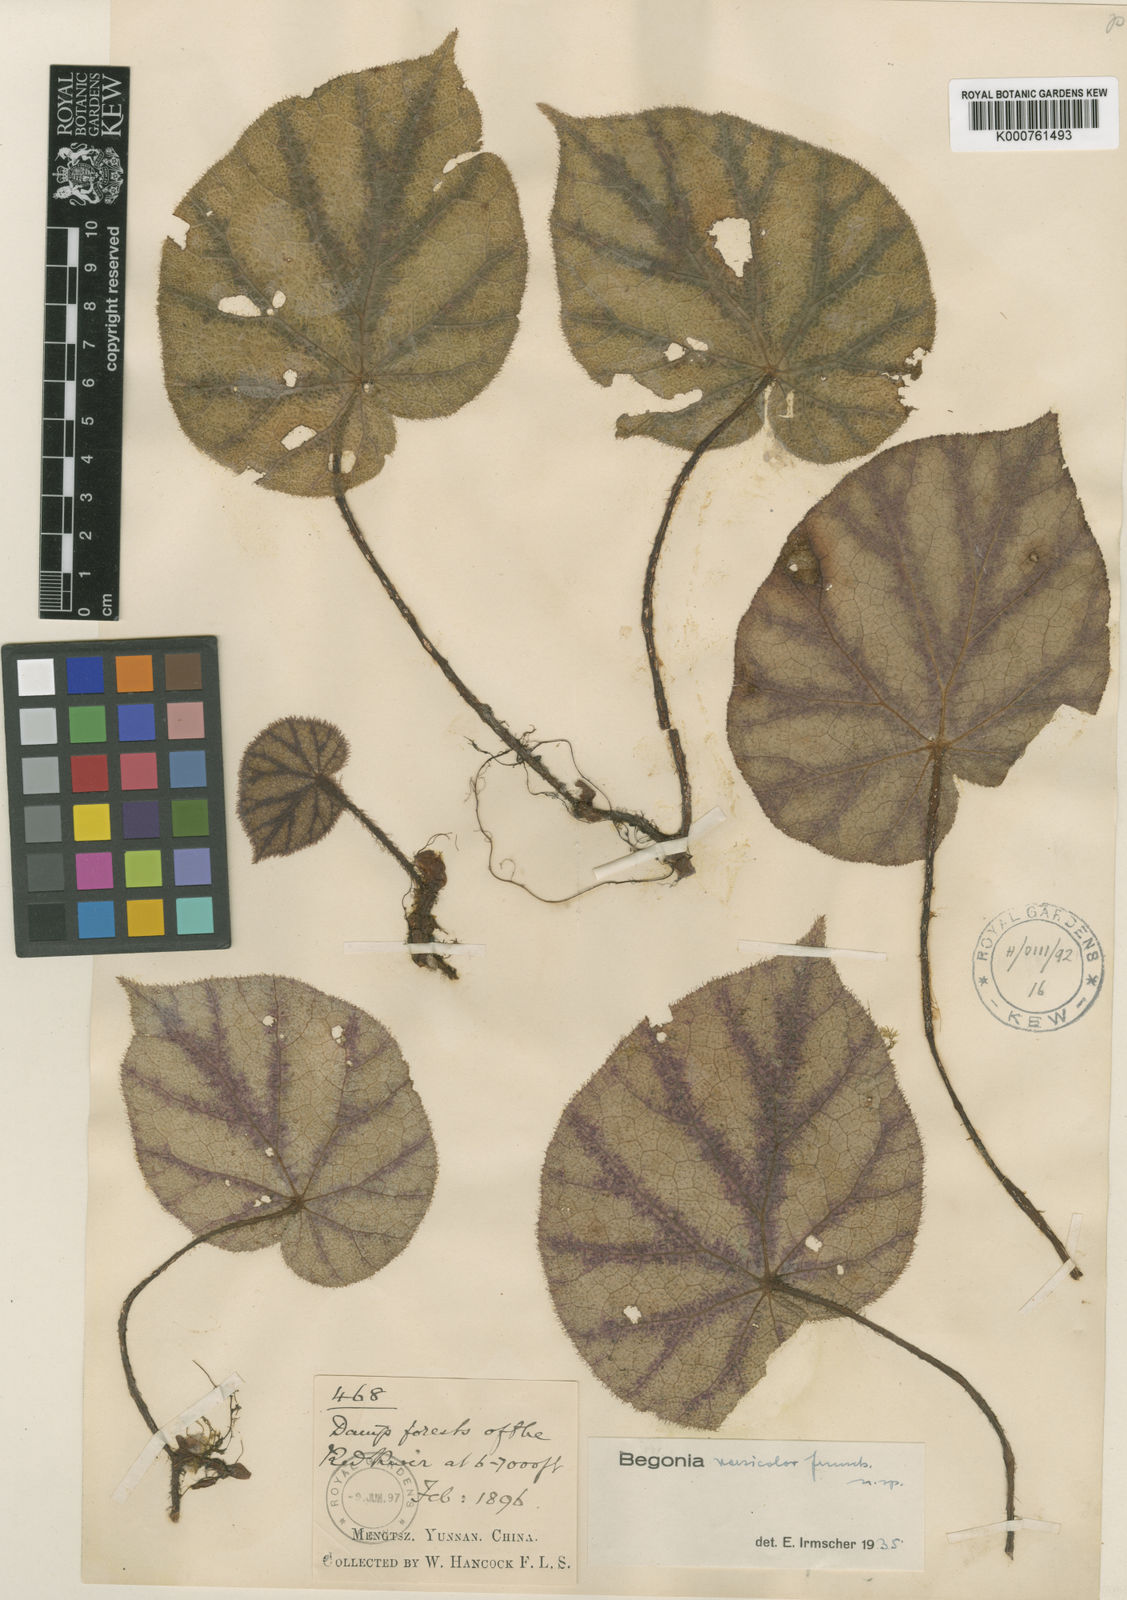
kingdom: Plantae
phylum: Tracheophyta
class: Magnoliopsida
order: Cucurbitales
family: Begoniaceae
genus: Begonia
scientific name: Begonia versicolor
